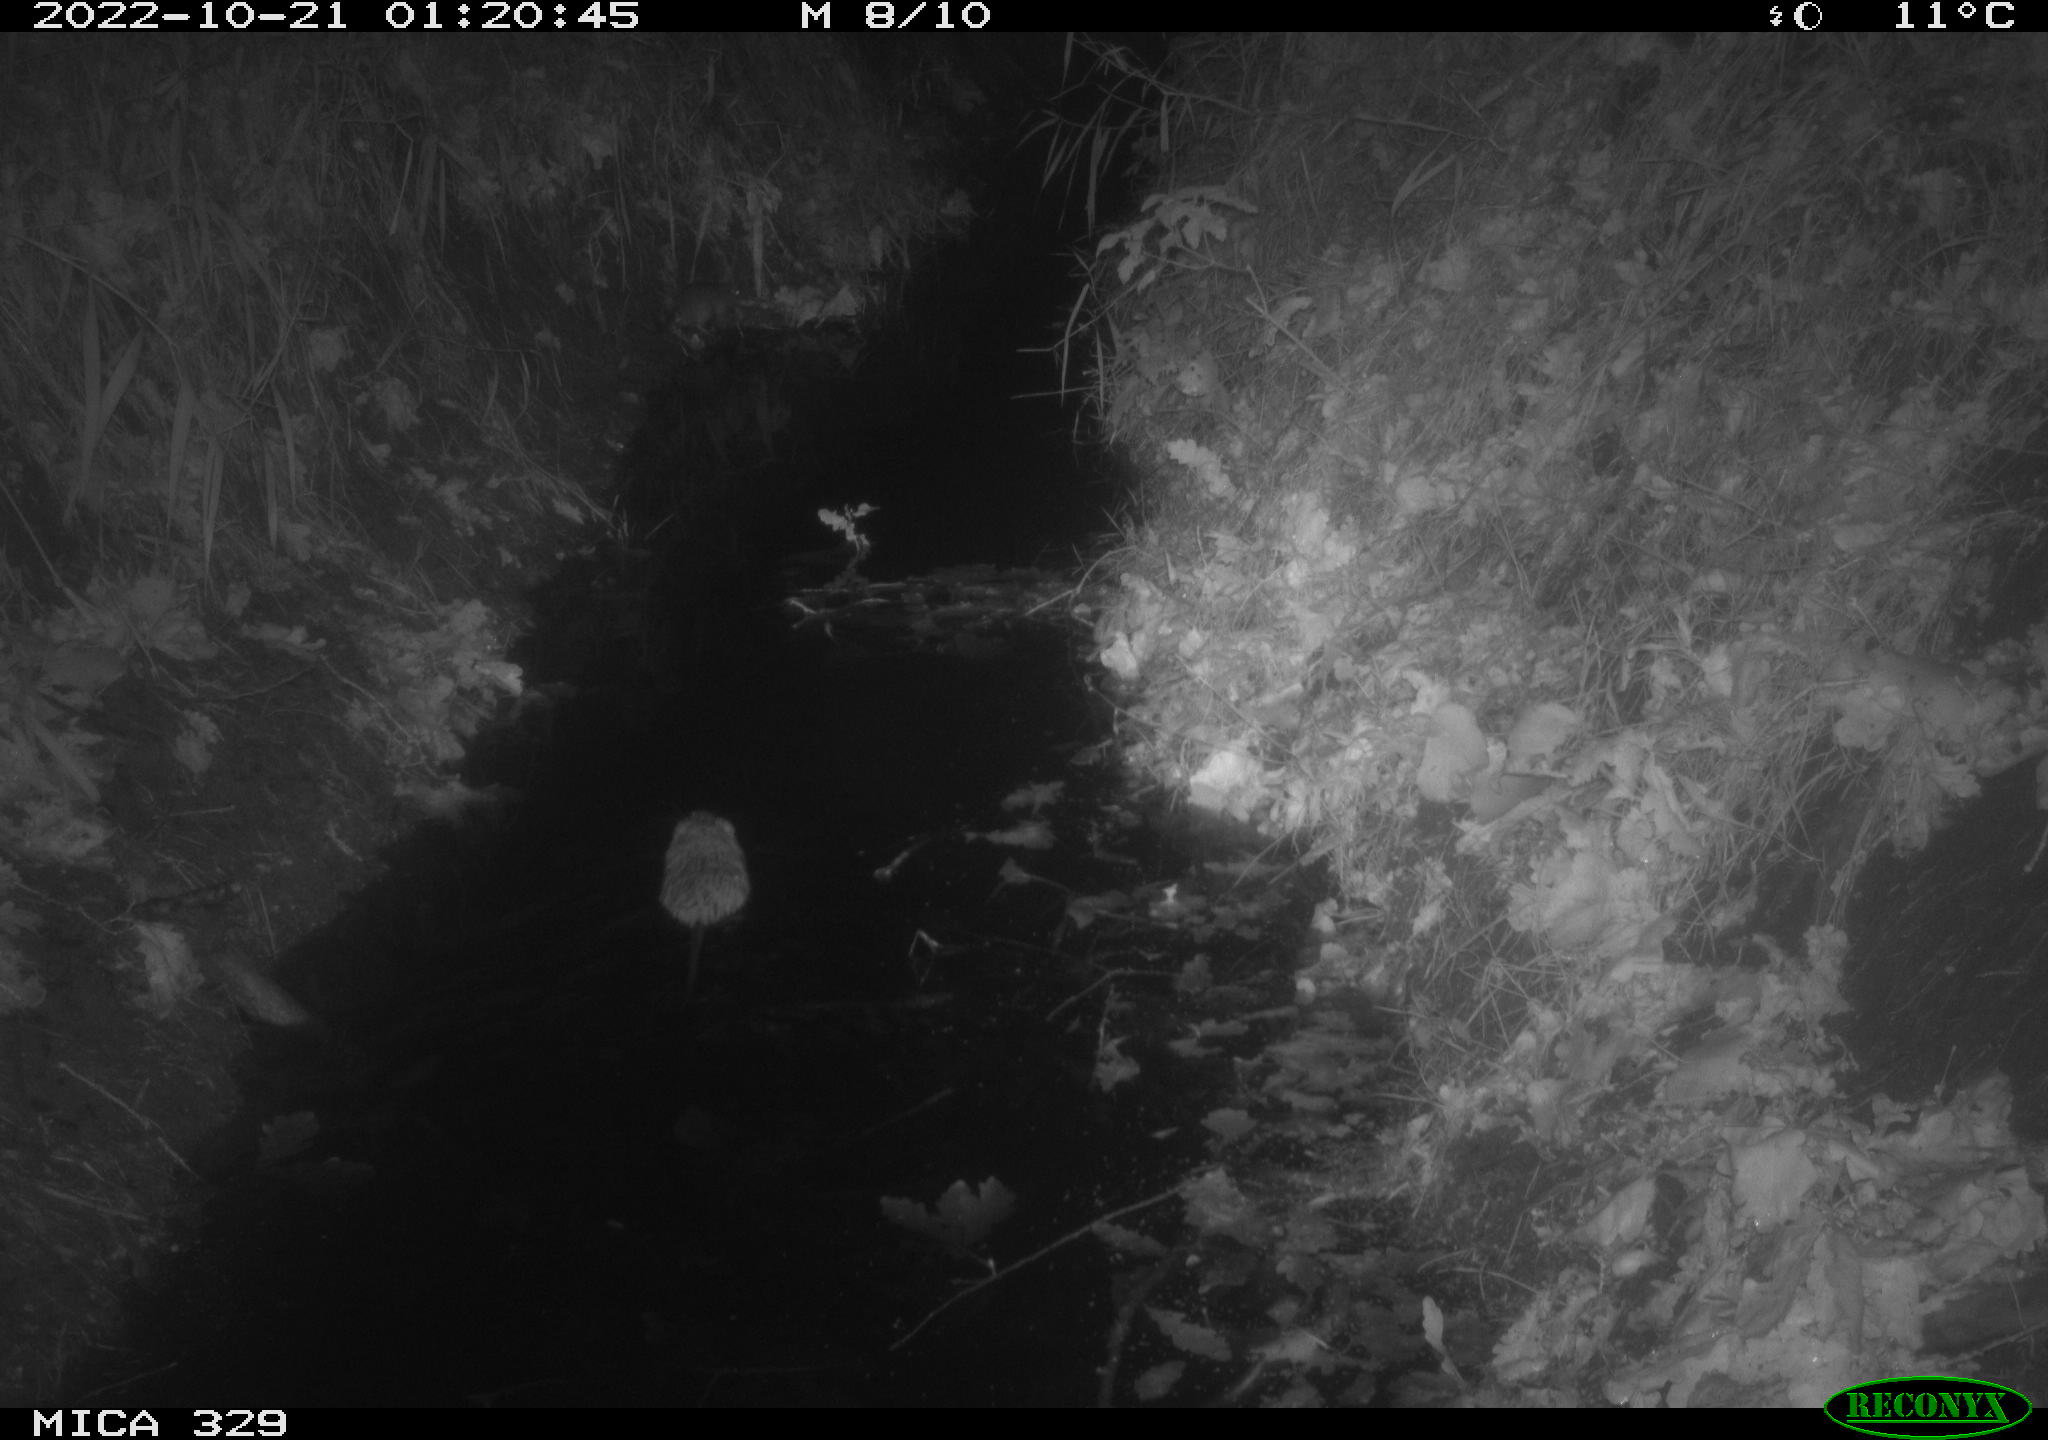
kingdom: Animalia
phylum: Chordata
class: Mammalia
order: Rodentia
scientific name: Rodentia
